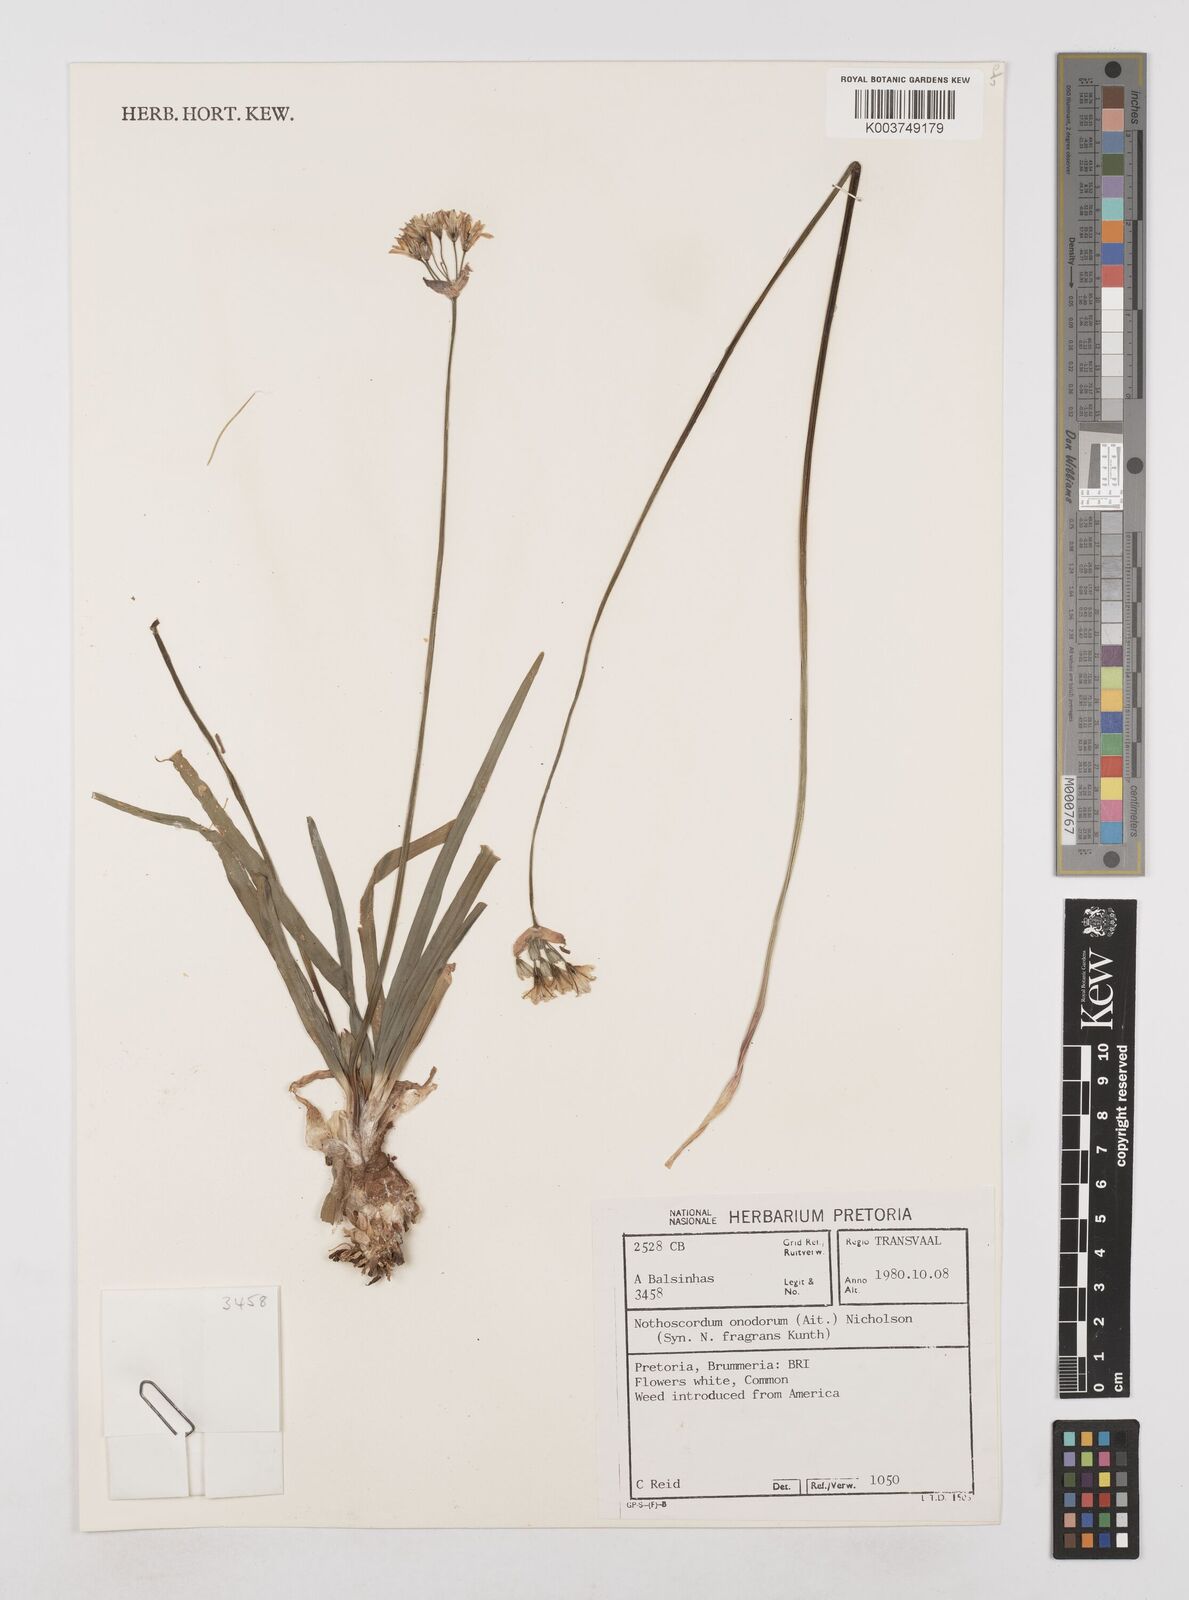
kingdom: Plantae
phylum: Tracheophyta
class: Liliopsida
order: Asparagales
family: Amaryllidaceae
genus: Allium
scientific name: Allium neapolitanum
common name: Neapolitan garlic
